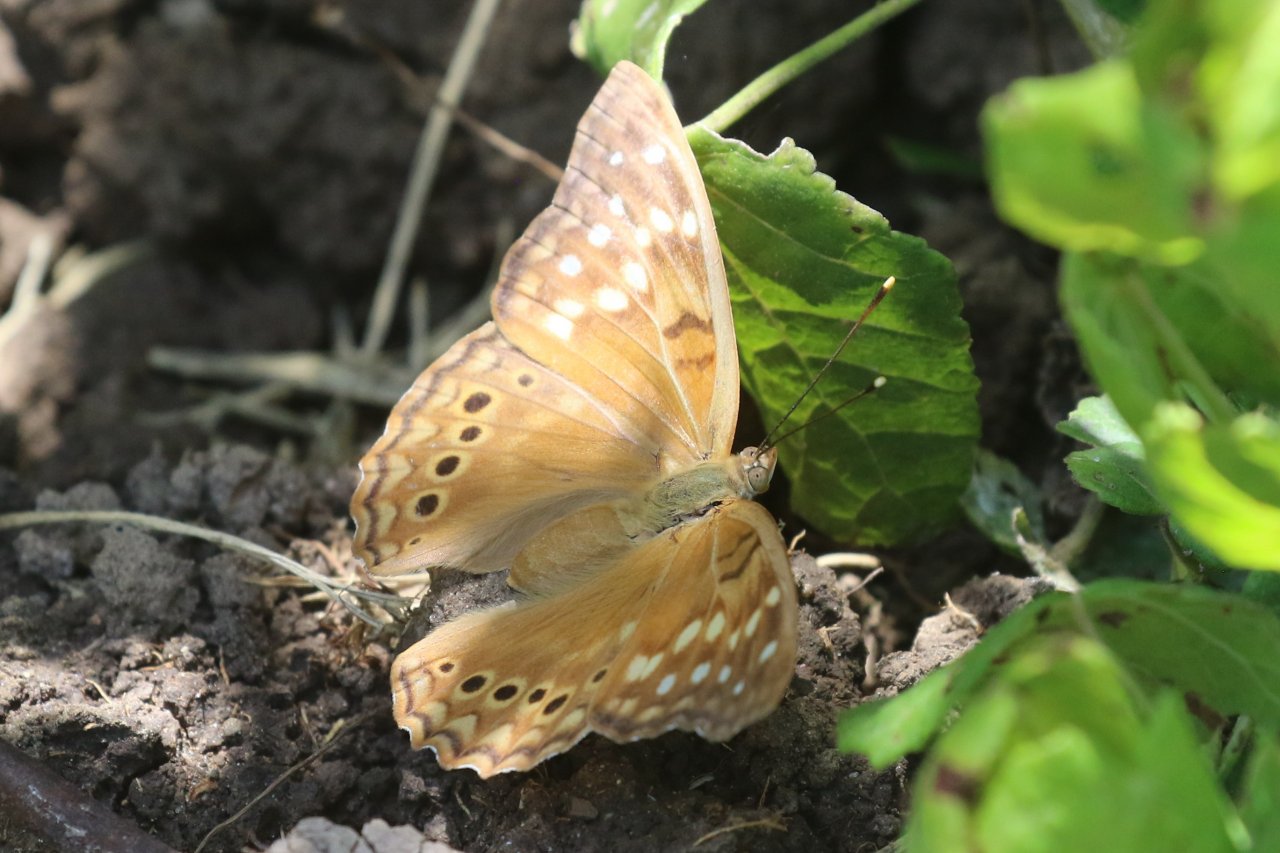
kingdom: Animalia
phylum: Arthropoda
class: Insecta
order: Lepidoptera
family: Nymphalidae
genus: Asterocampa
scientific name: Asterocampa clyton
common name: Tawny Emperor
